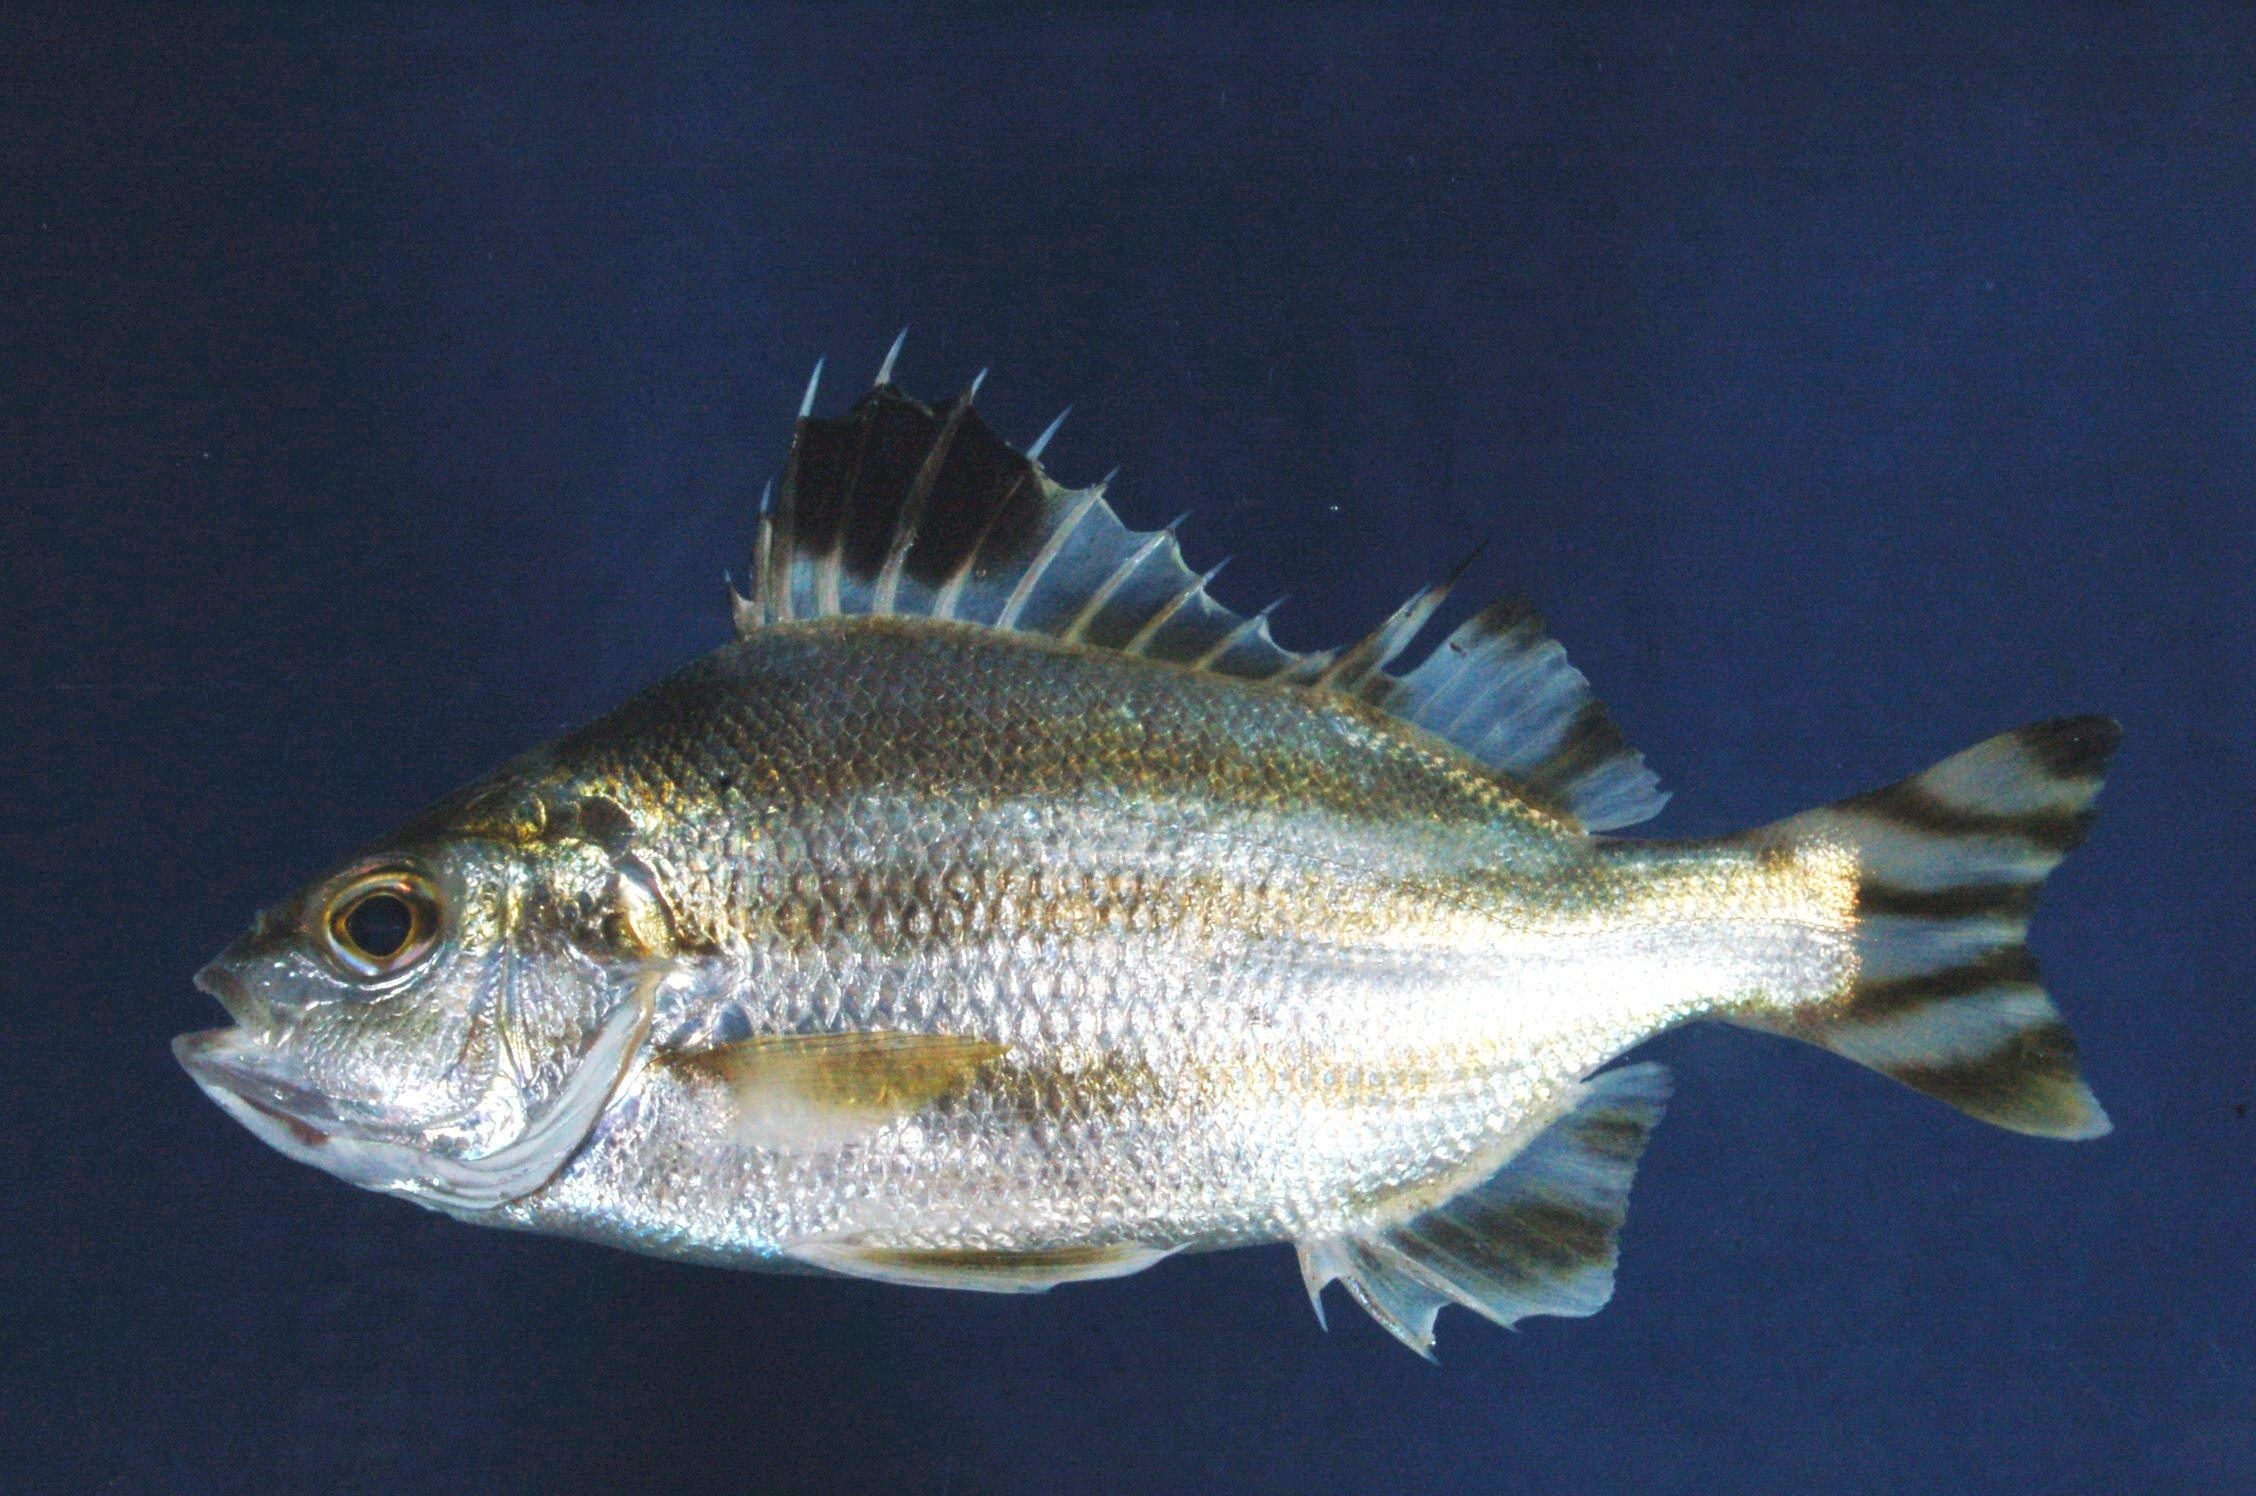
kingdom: Animalia
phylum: Chordata
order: Perciformes
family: Terapontidae
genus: Terapon
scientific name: Terapon theraps
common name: Largescaled therapon
